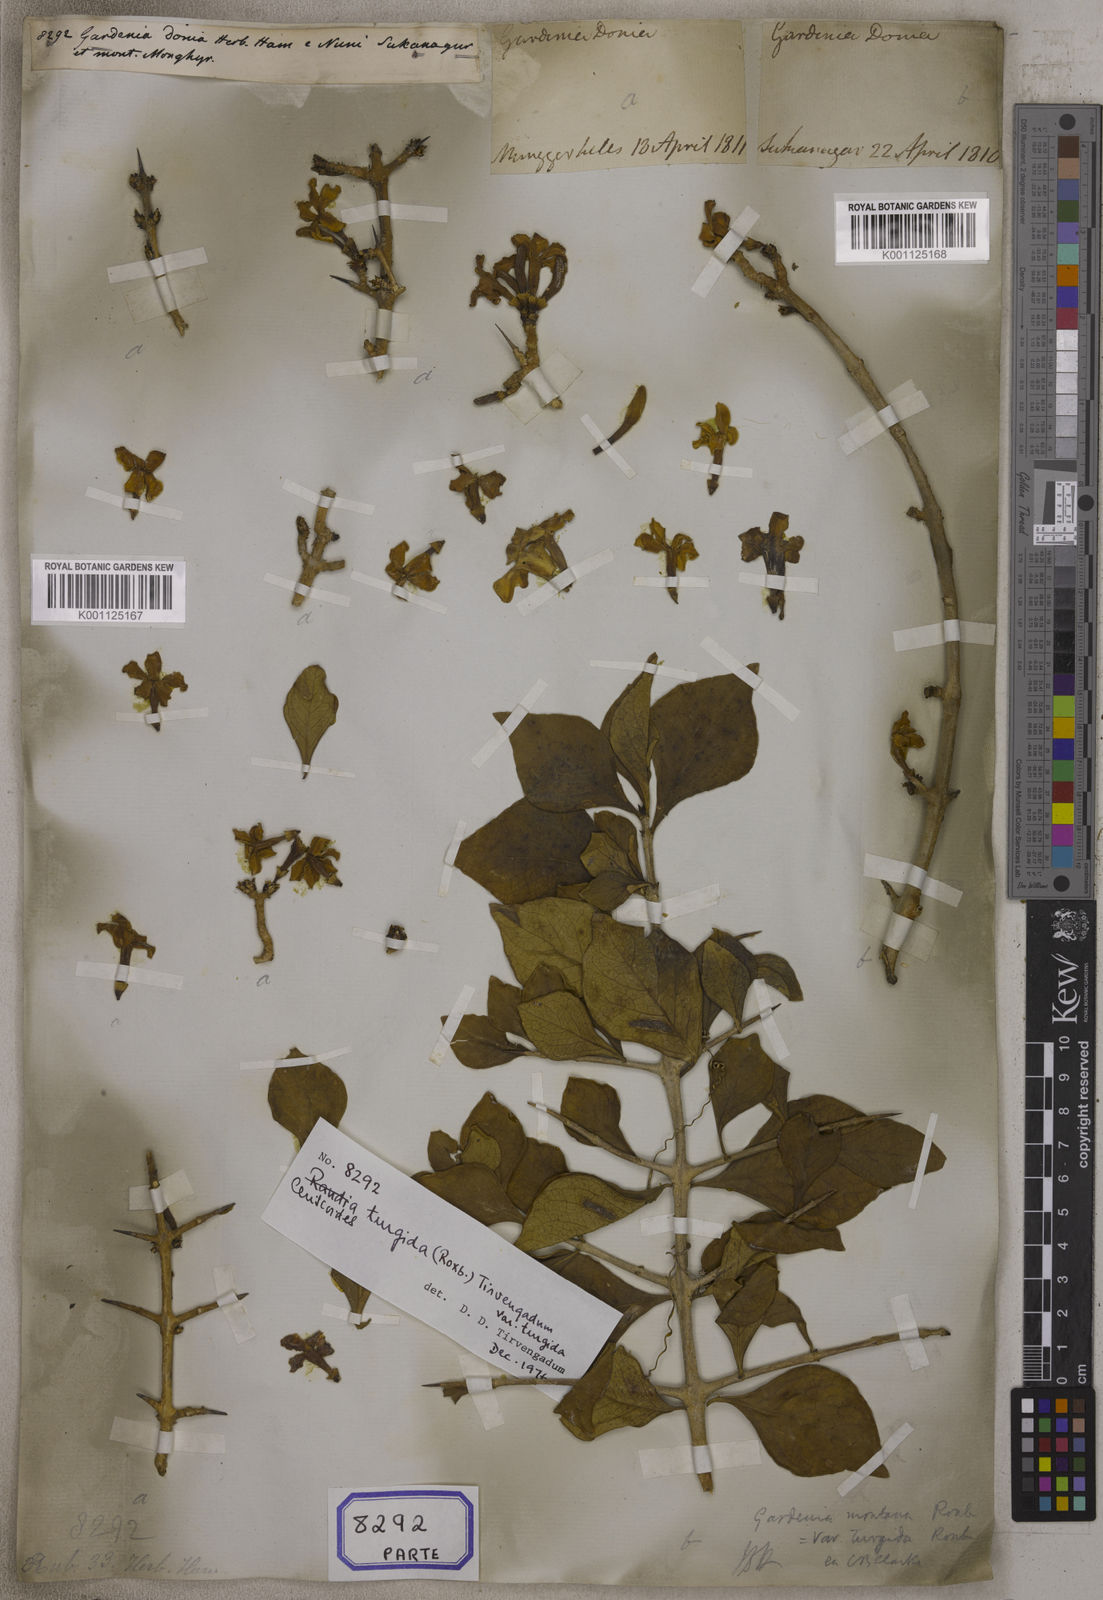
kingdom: Plantae
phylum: Tracheophyta
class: Magnoliopsida
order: Gentianales
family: Rubiaceae
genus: Gardenia
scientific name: Gardenia
